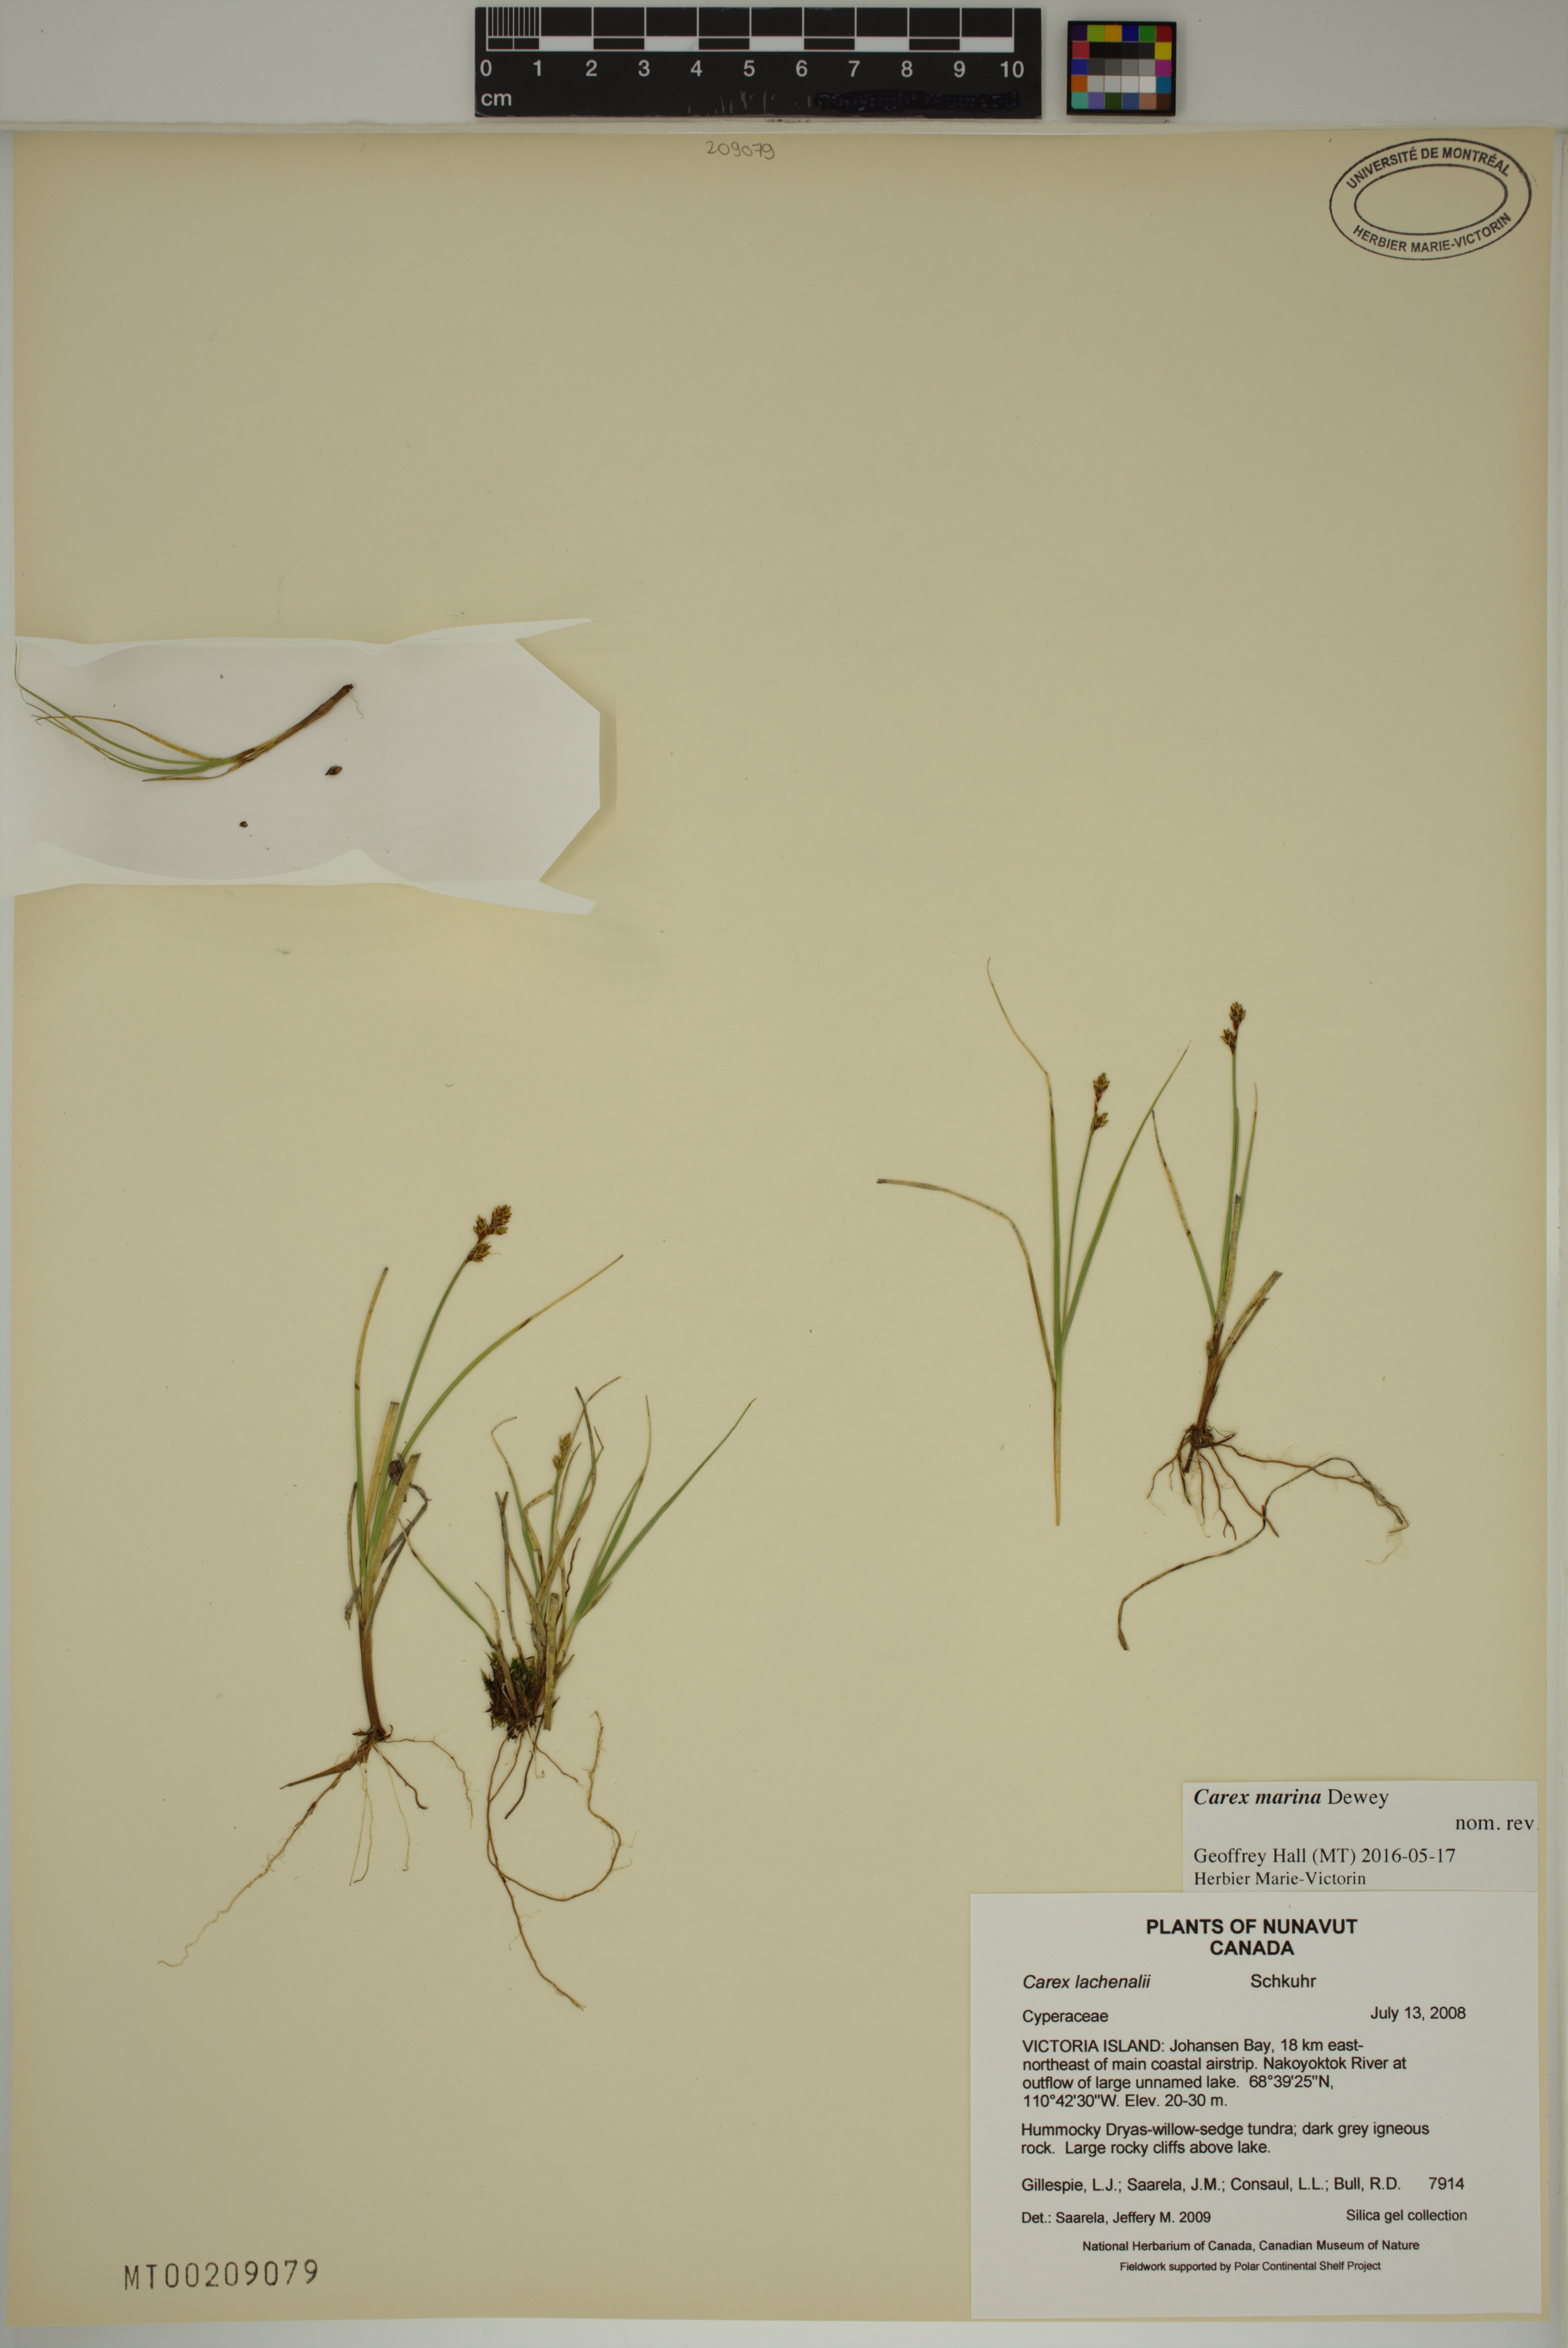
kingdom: Plantae
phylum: Tracheophyta
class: Liliopsida
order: Poales
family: Cyperaceae
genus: Carex
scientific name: Carex marina
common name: Seashore sedge
